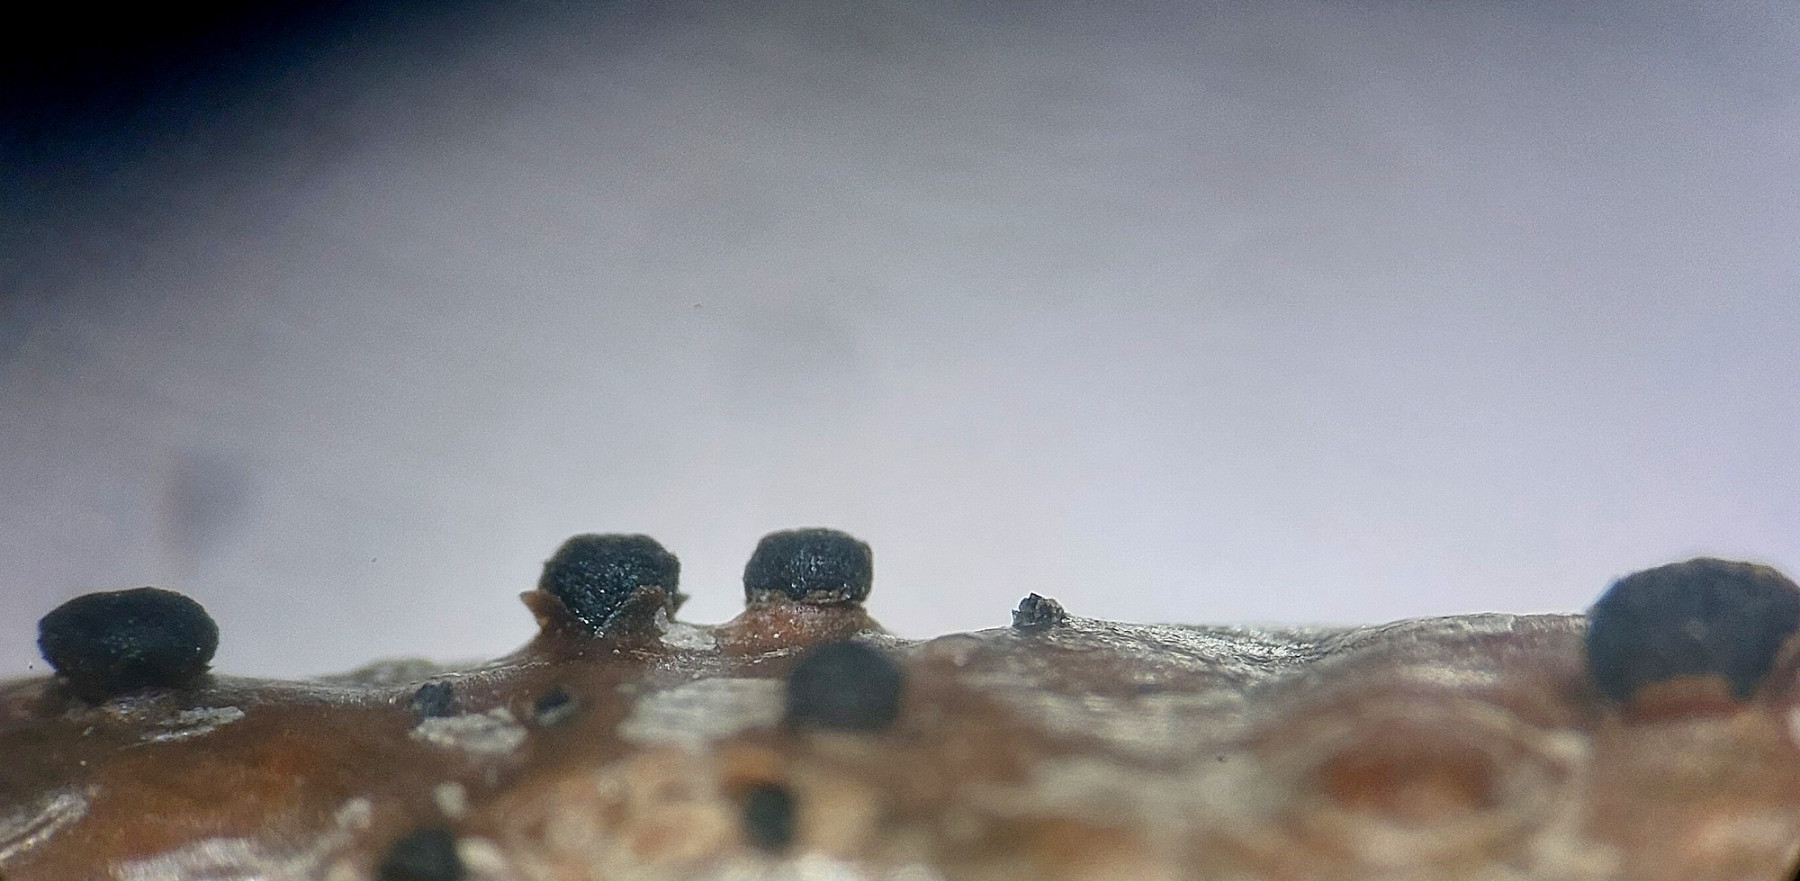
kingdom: Fungi
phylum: Ascomycota
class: Dothideomycetes
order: Pleosporales
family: Massarinaceae
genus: Helminthosporium
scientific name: Helminthosporium oligosporum
